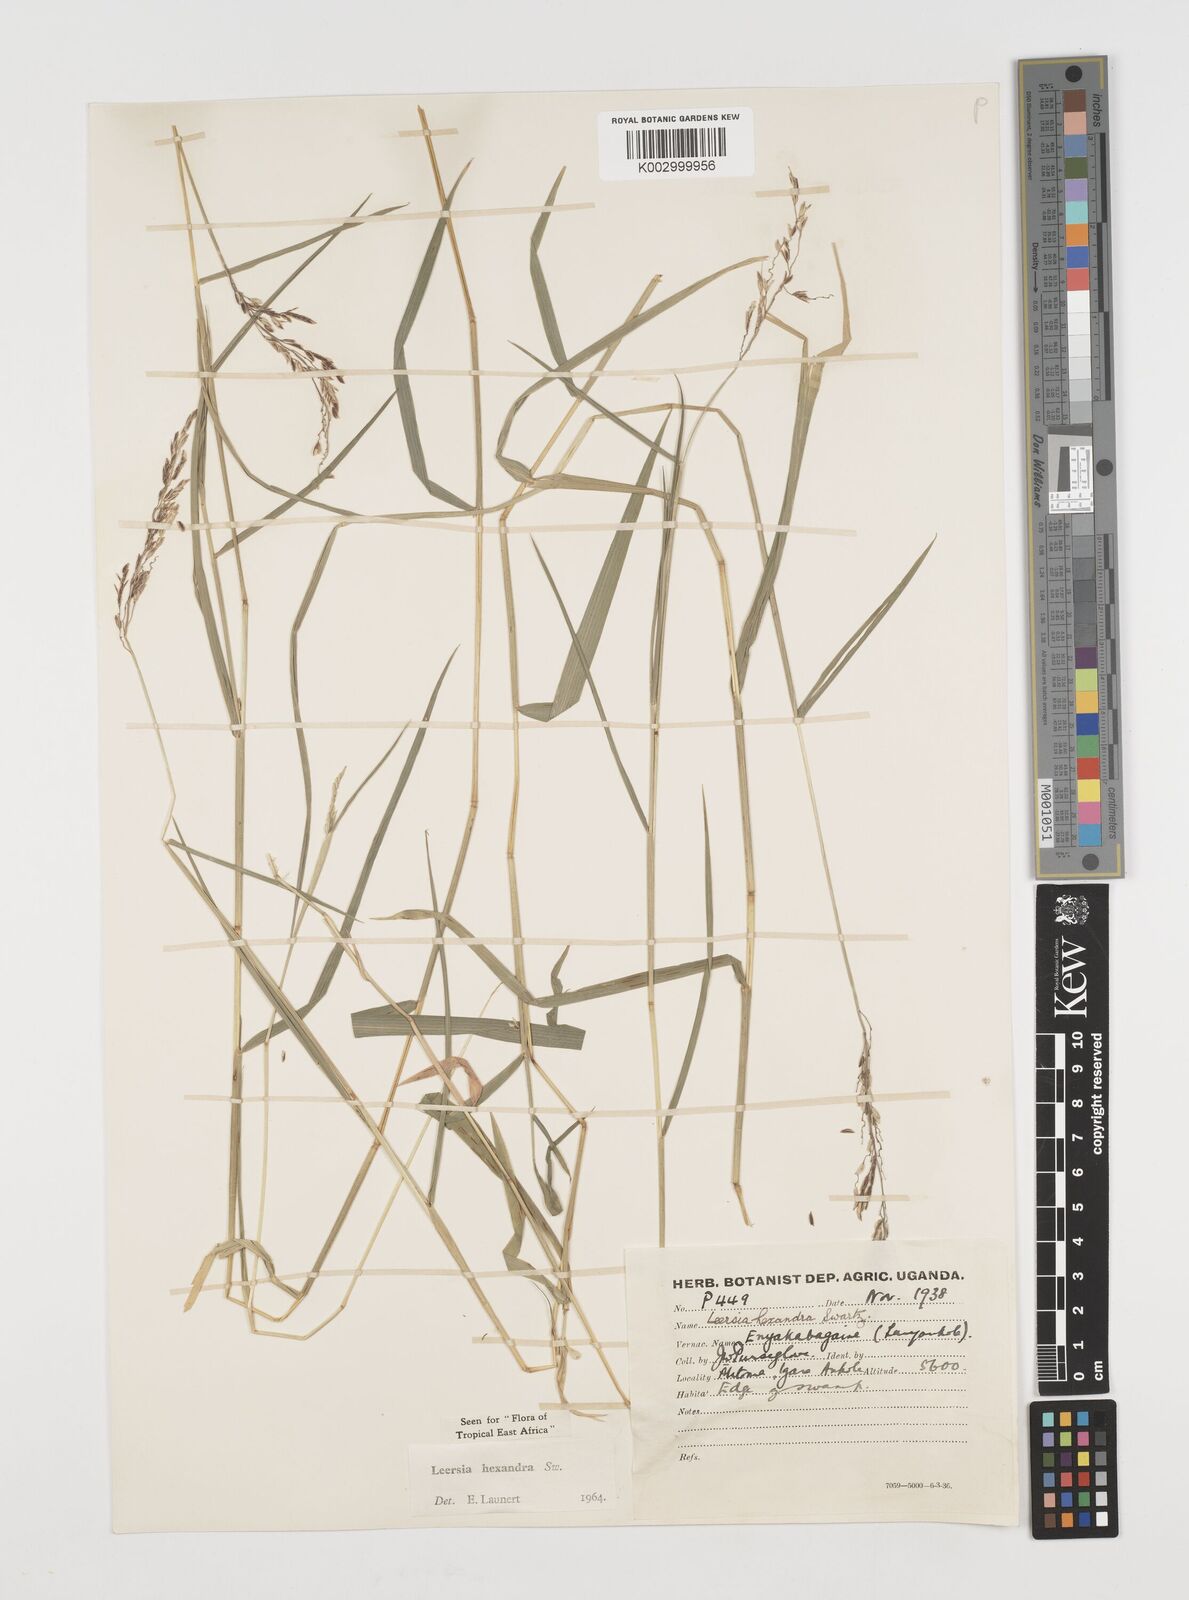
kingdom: Plantae
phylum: Tracheophyta
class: Liliopsida
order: Poales
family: Poaceae
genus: Leersia
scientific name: Leersia hexandra
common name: Southern cut grass
